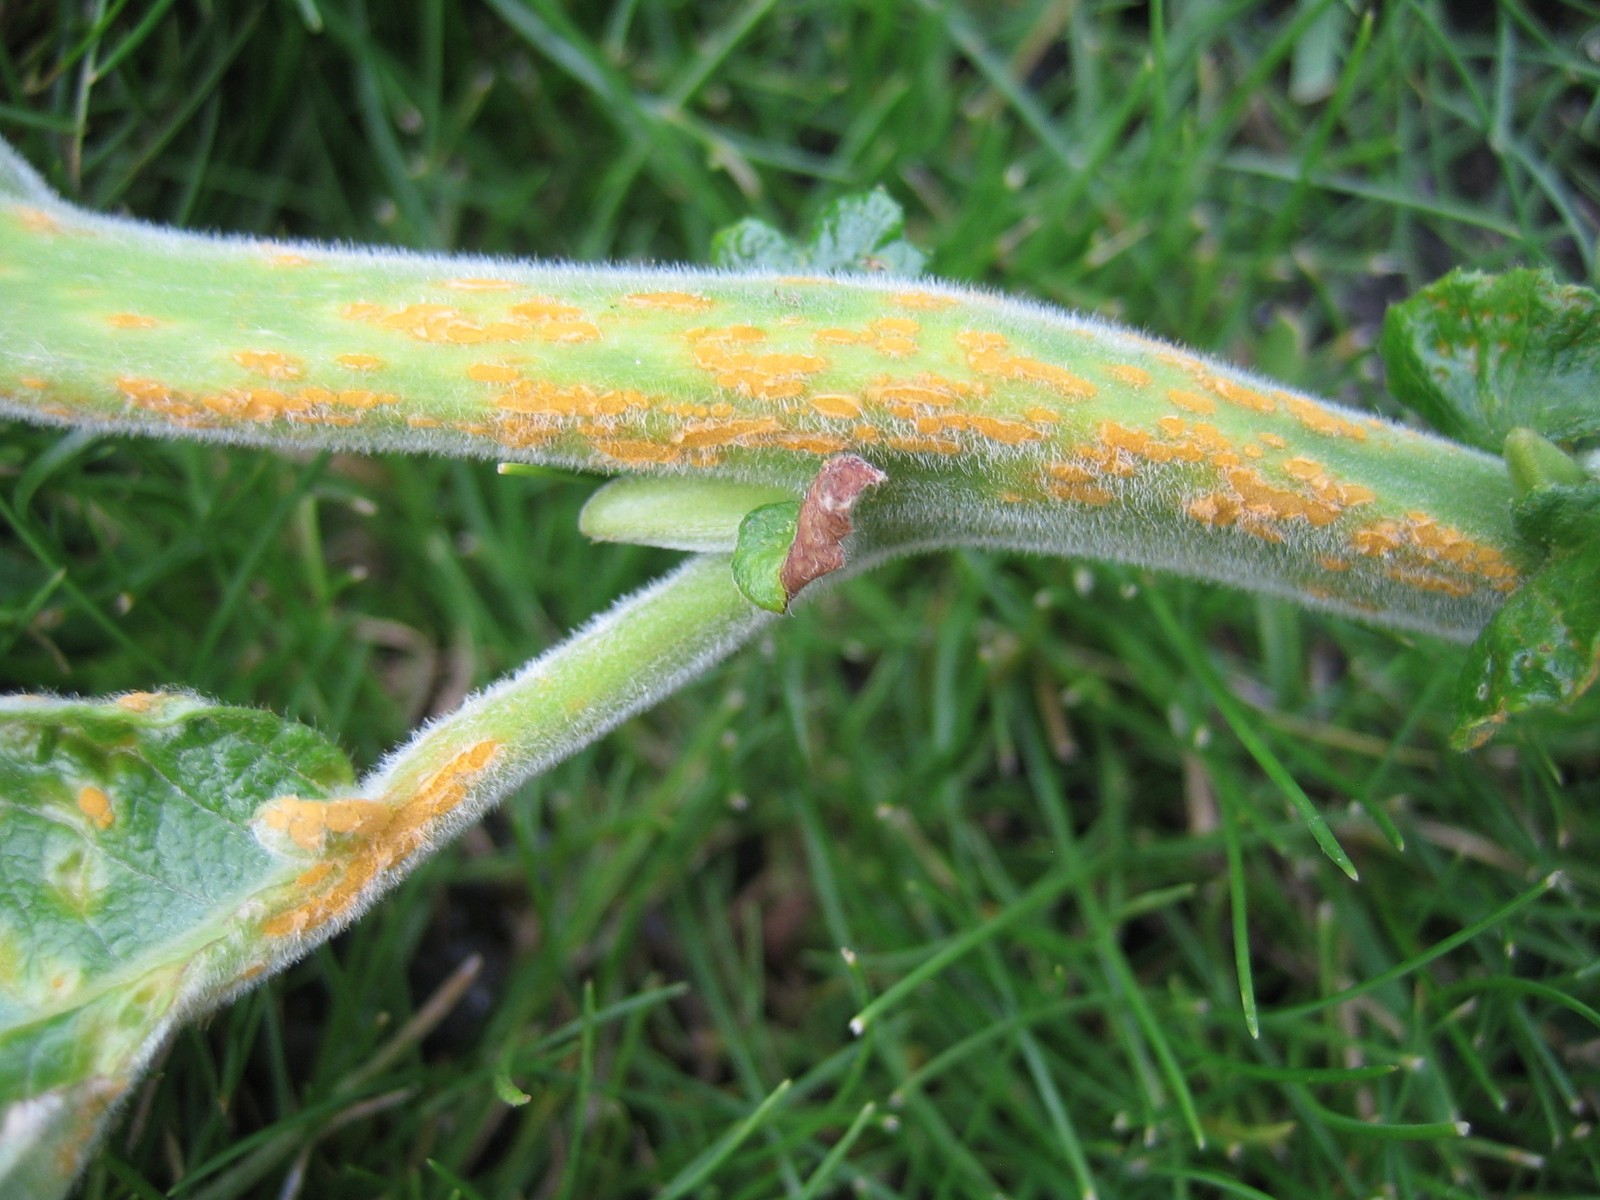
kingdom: Fungi
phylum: Basidiomycota
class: Pucciniomycetes
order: Pucciniales
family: Melampsoraceae
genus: Melampsora
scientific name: Melampsora
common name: skorperust
